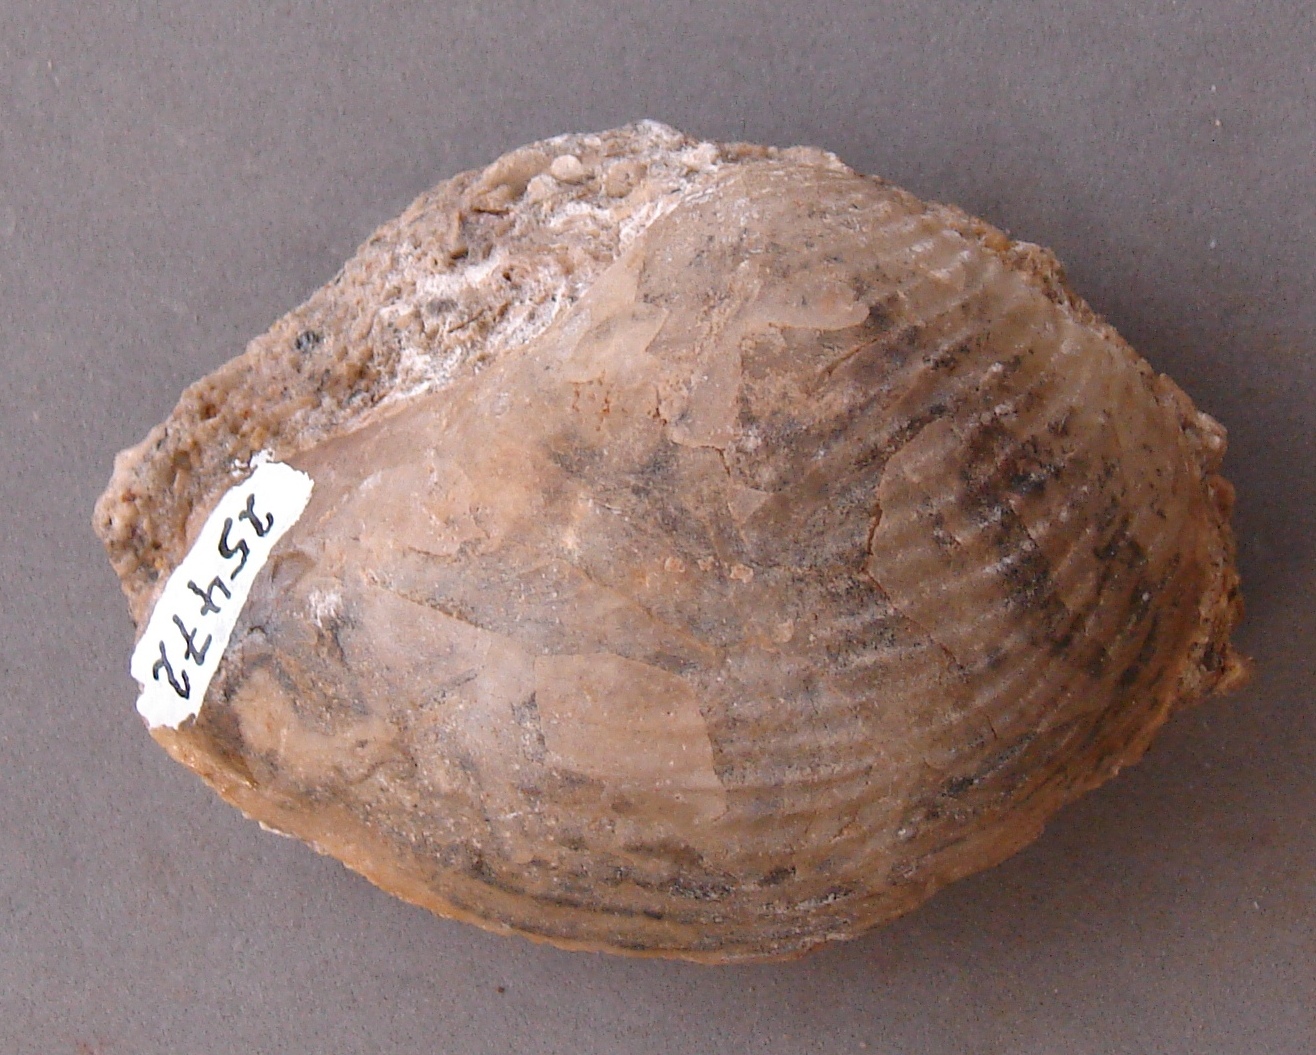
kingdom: Animalia
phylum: Mollusca
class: Bivalvia
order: Trigoniida
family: Trigoniidae
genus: Trigonia
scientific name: Trigonia micheloti
